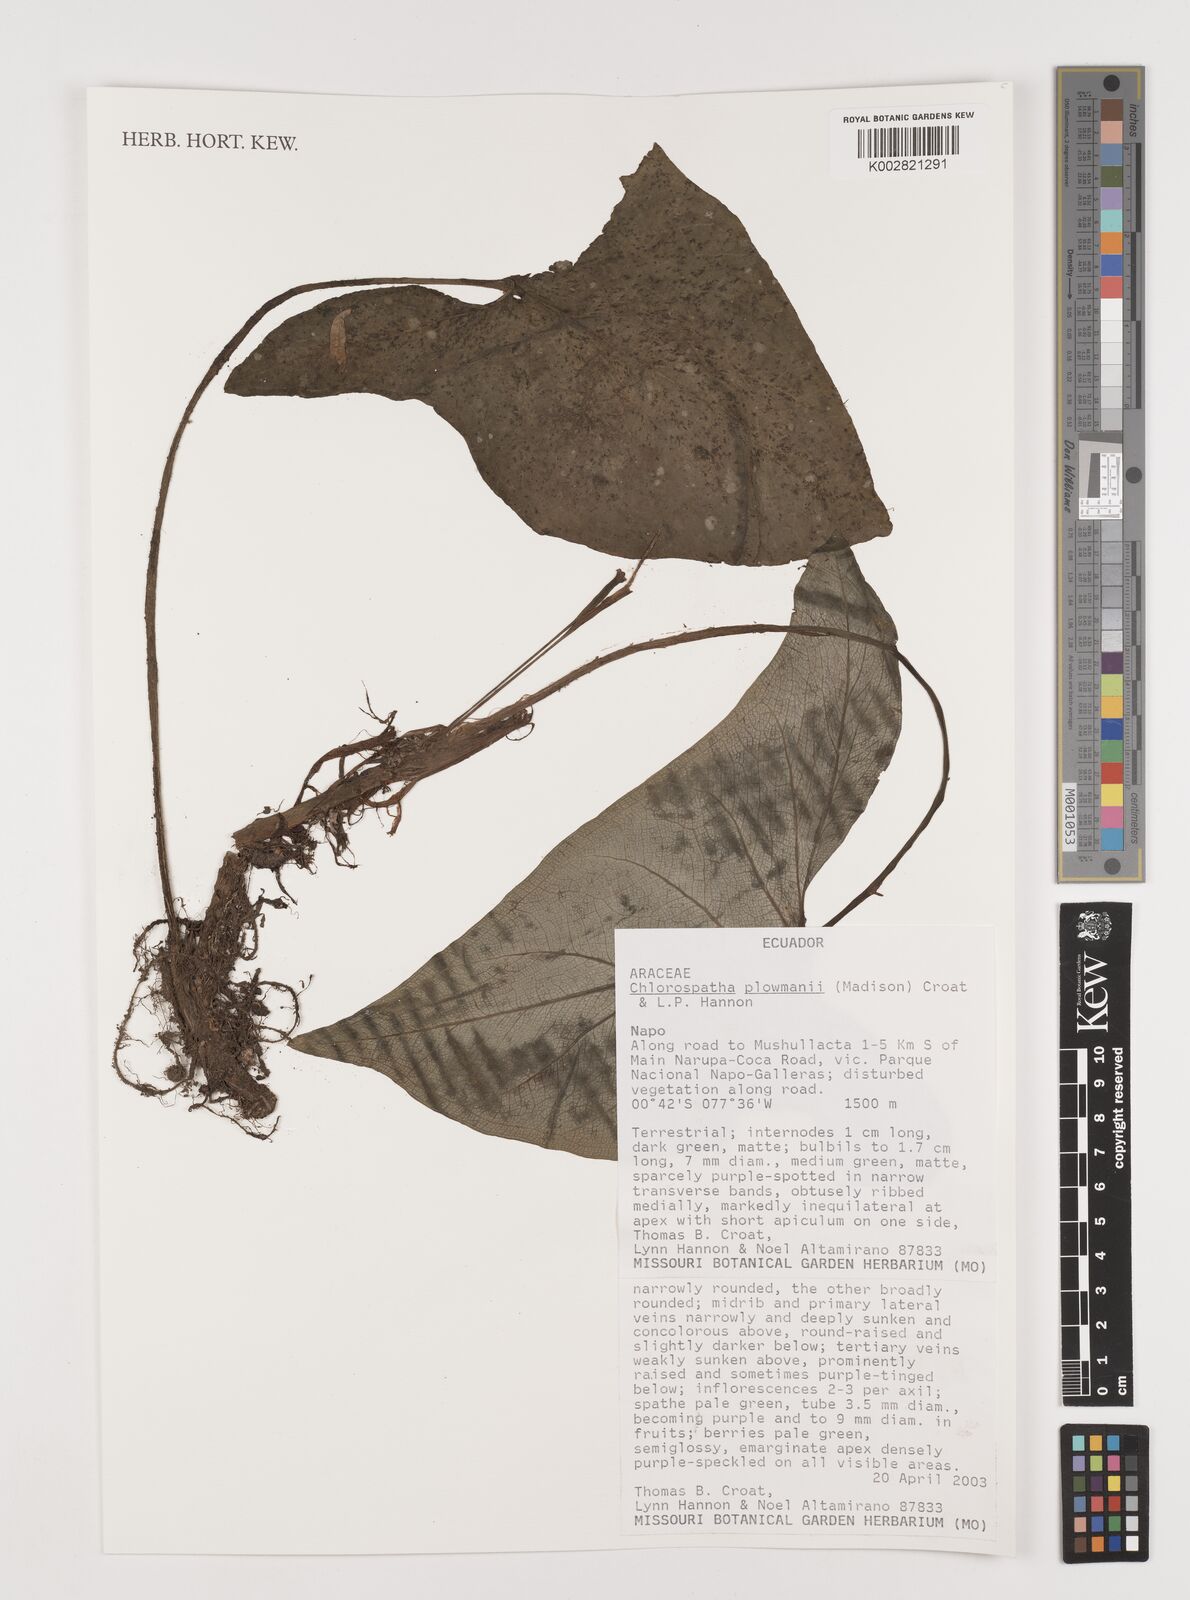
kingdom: Plantae
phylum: Tracheophyta
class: Liliopsida
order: Alismatales
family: Araceae
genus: Chlorospatha
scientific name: Chlorospatha plowmanii
